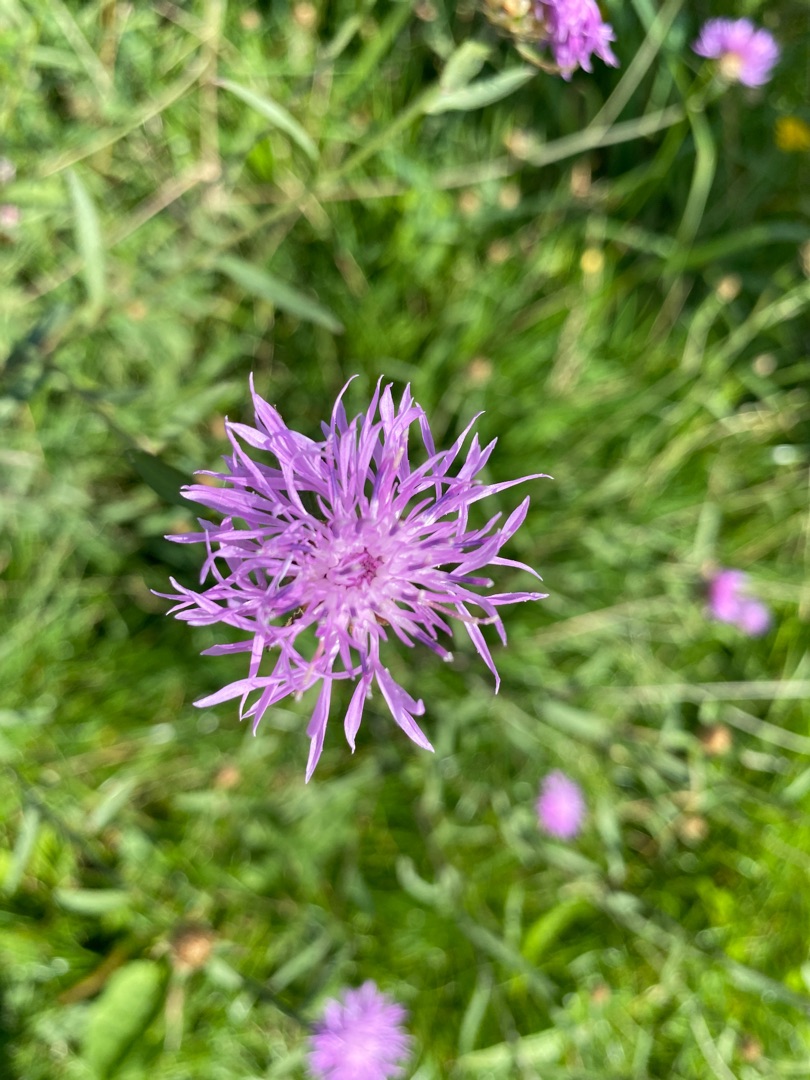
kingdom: Plantae
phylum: Tracheophyta
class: Magnoliopsida
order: Asterales
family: Asteraceae
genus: Centaurea
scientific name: Centaurea jacea
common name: Almindelig knopurt
